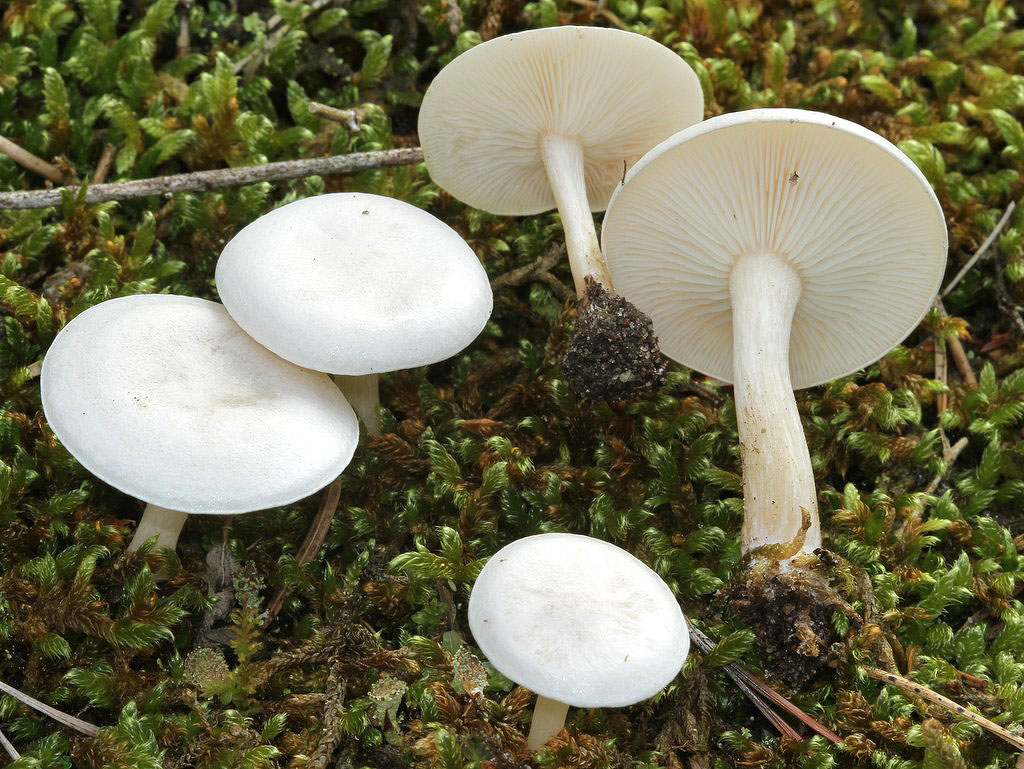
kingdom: Fungi
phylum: Basidiomycota
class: Agaricomycetes
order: Agaricales
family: Tricholomataceae
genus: Leucocybe
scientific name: Leucocybe candicans
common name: kridt-tragthat
